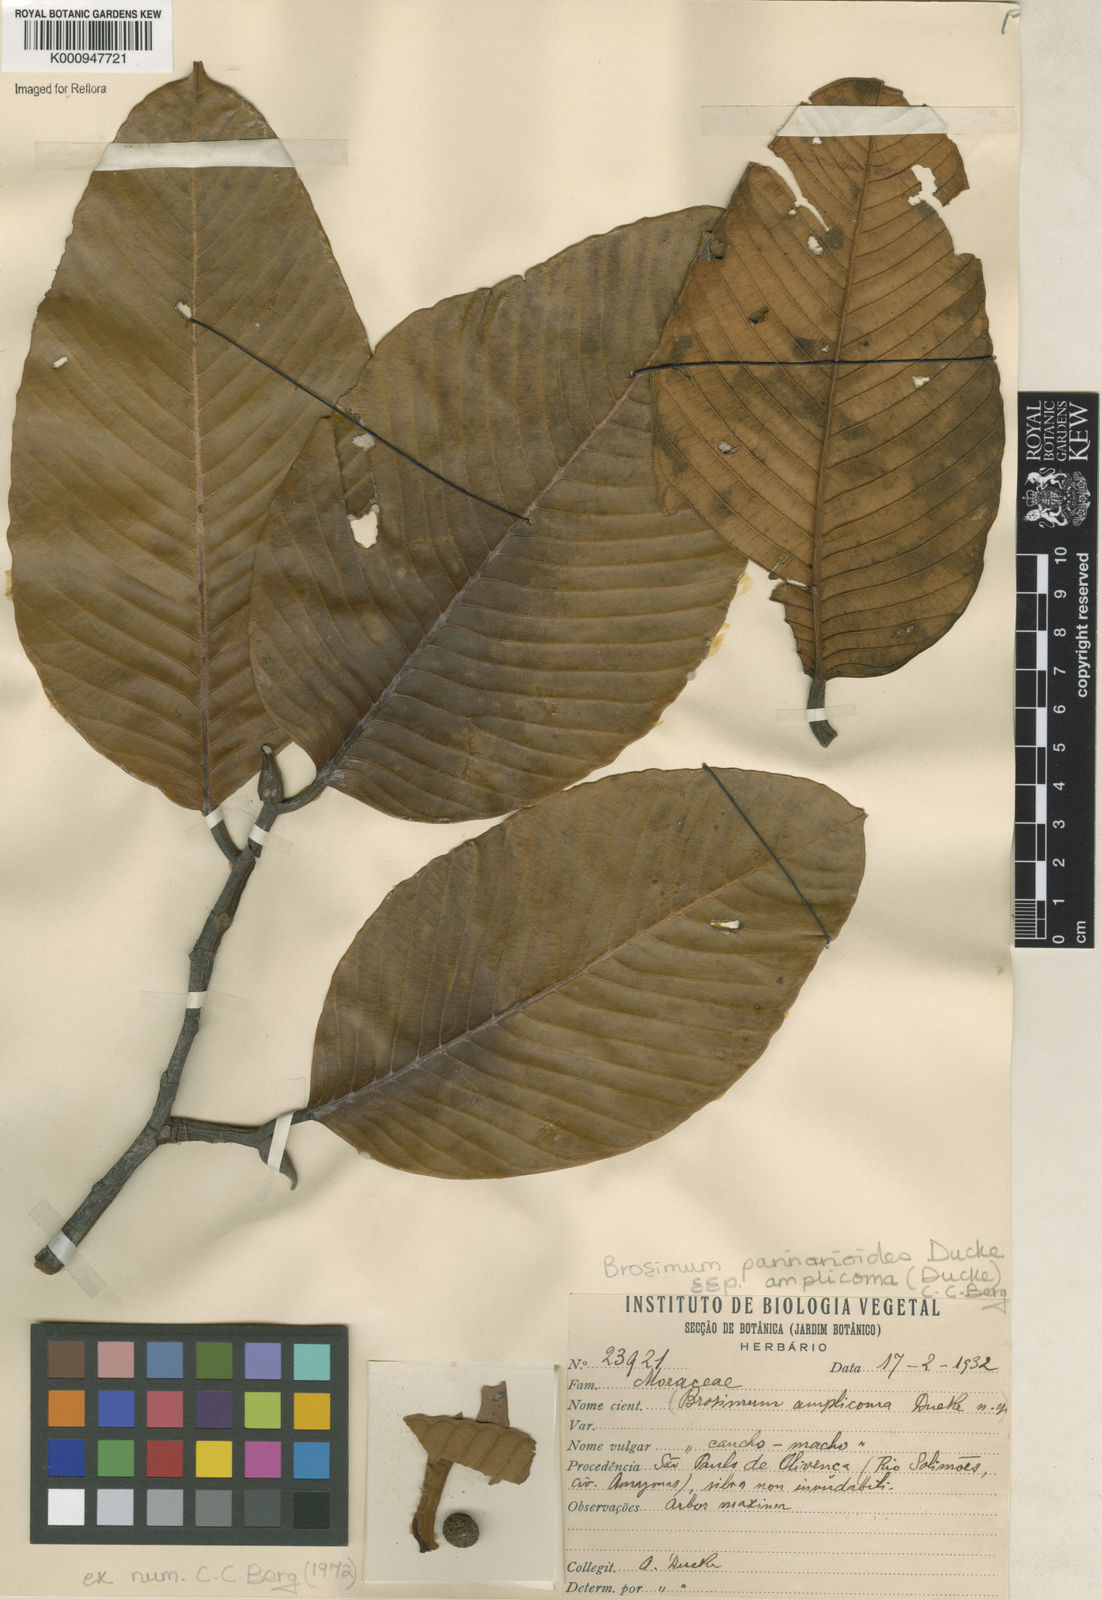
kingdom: Plantae
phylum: Tracheophyta
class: Magnoliopsida
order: Rosales
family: Moraceae
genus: Brosimum
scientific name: Brosimum parinarioides
